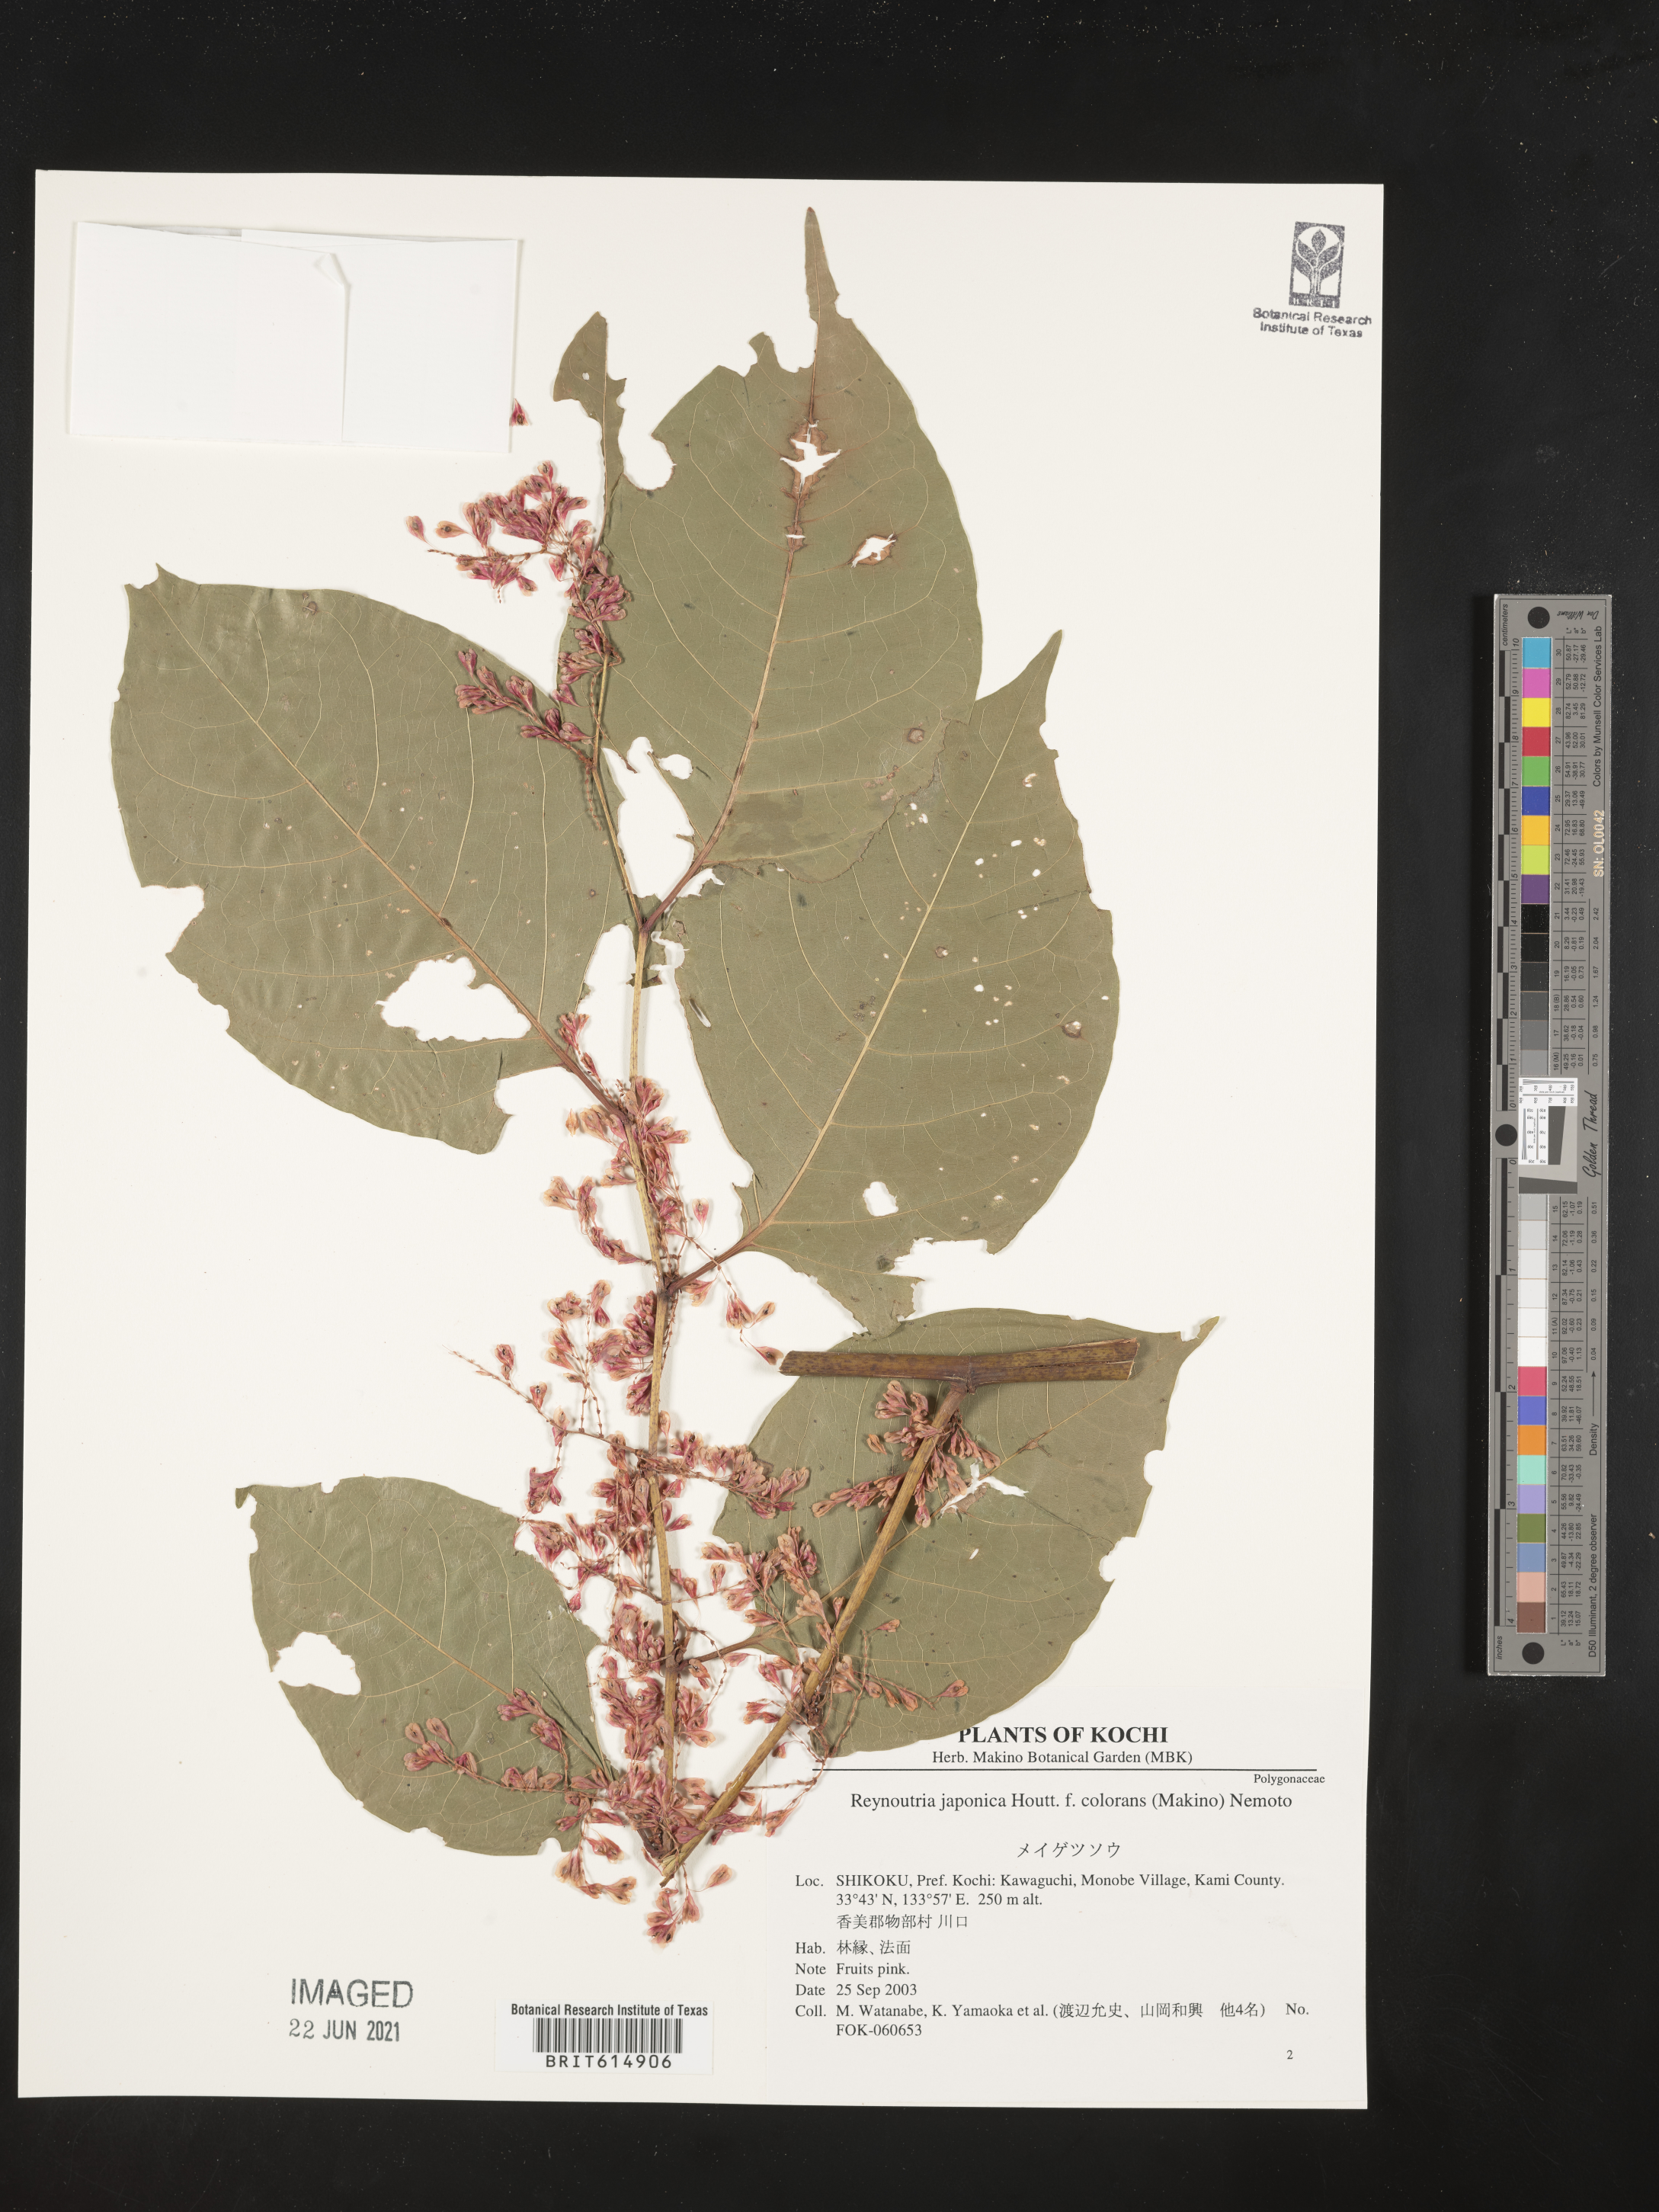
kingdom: Plantae
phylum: Tracheophyta
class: Magnoliopsida
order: Caryophyllales
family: Polygonaceae
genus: Reynoutria
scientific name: Reynoutria japonica
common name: Japanese knotweed
